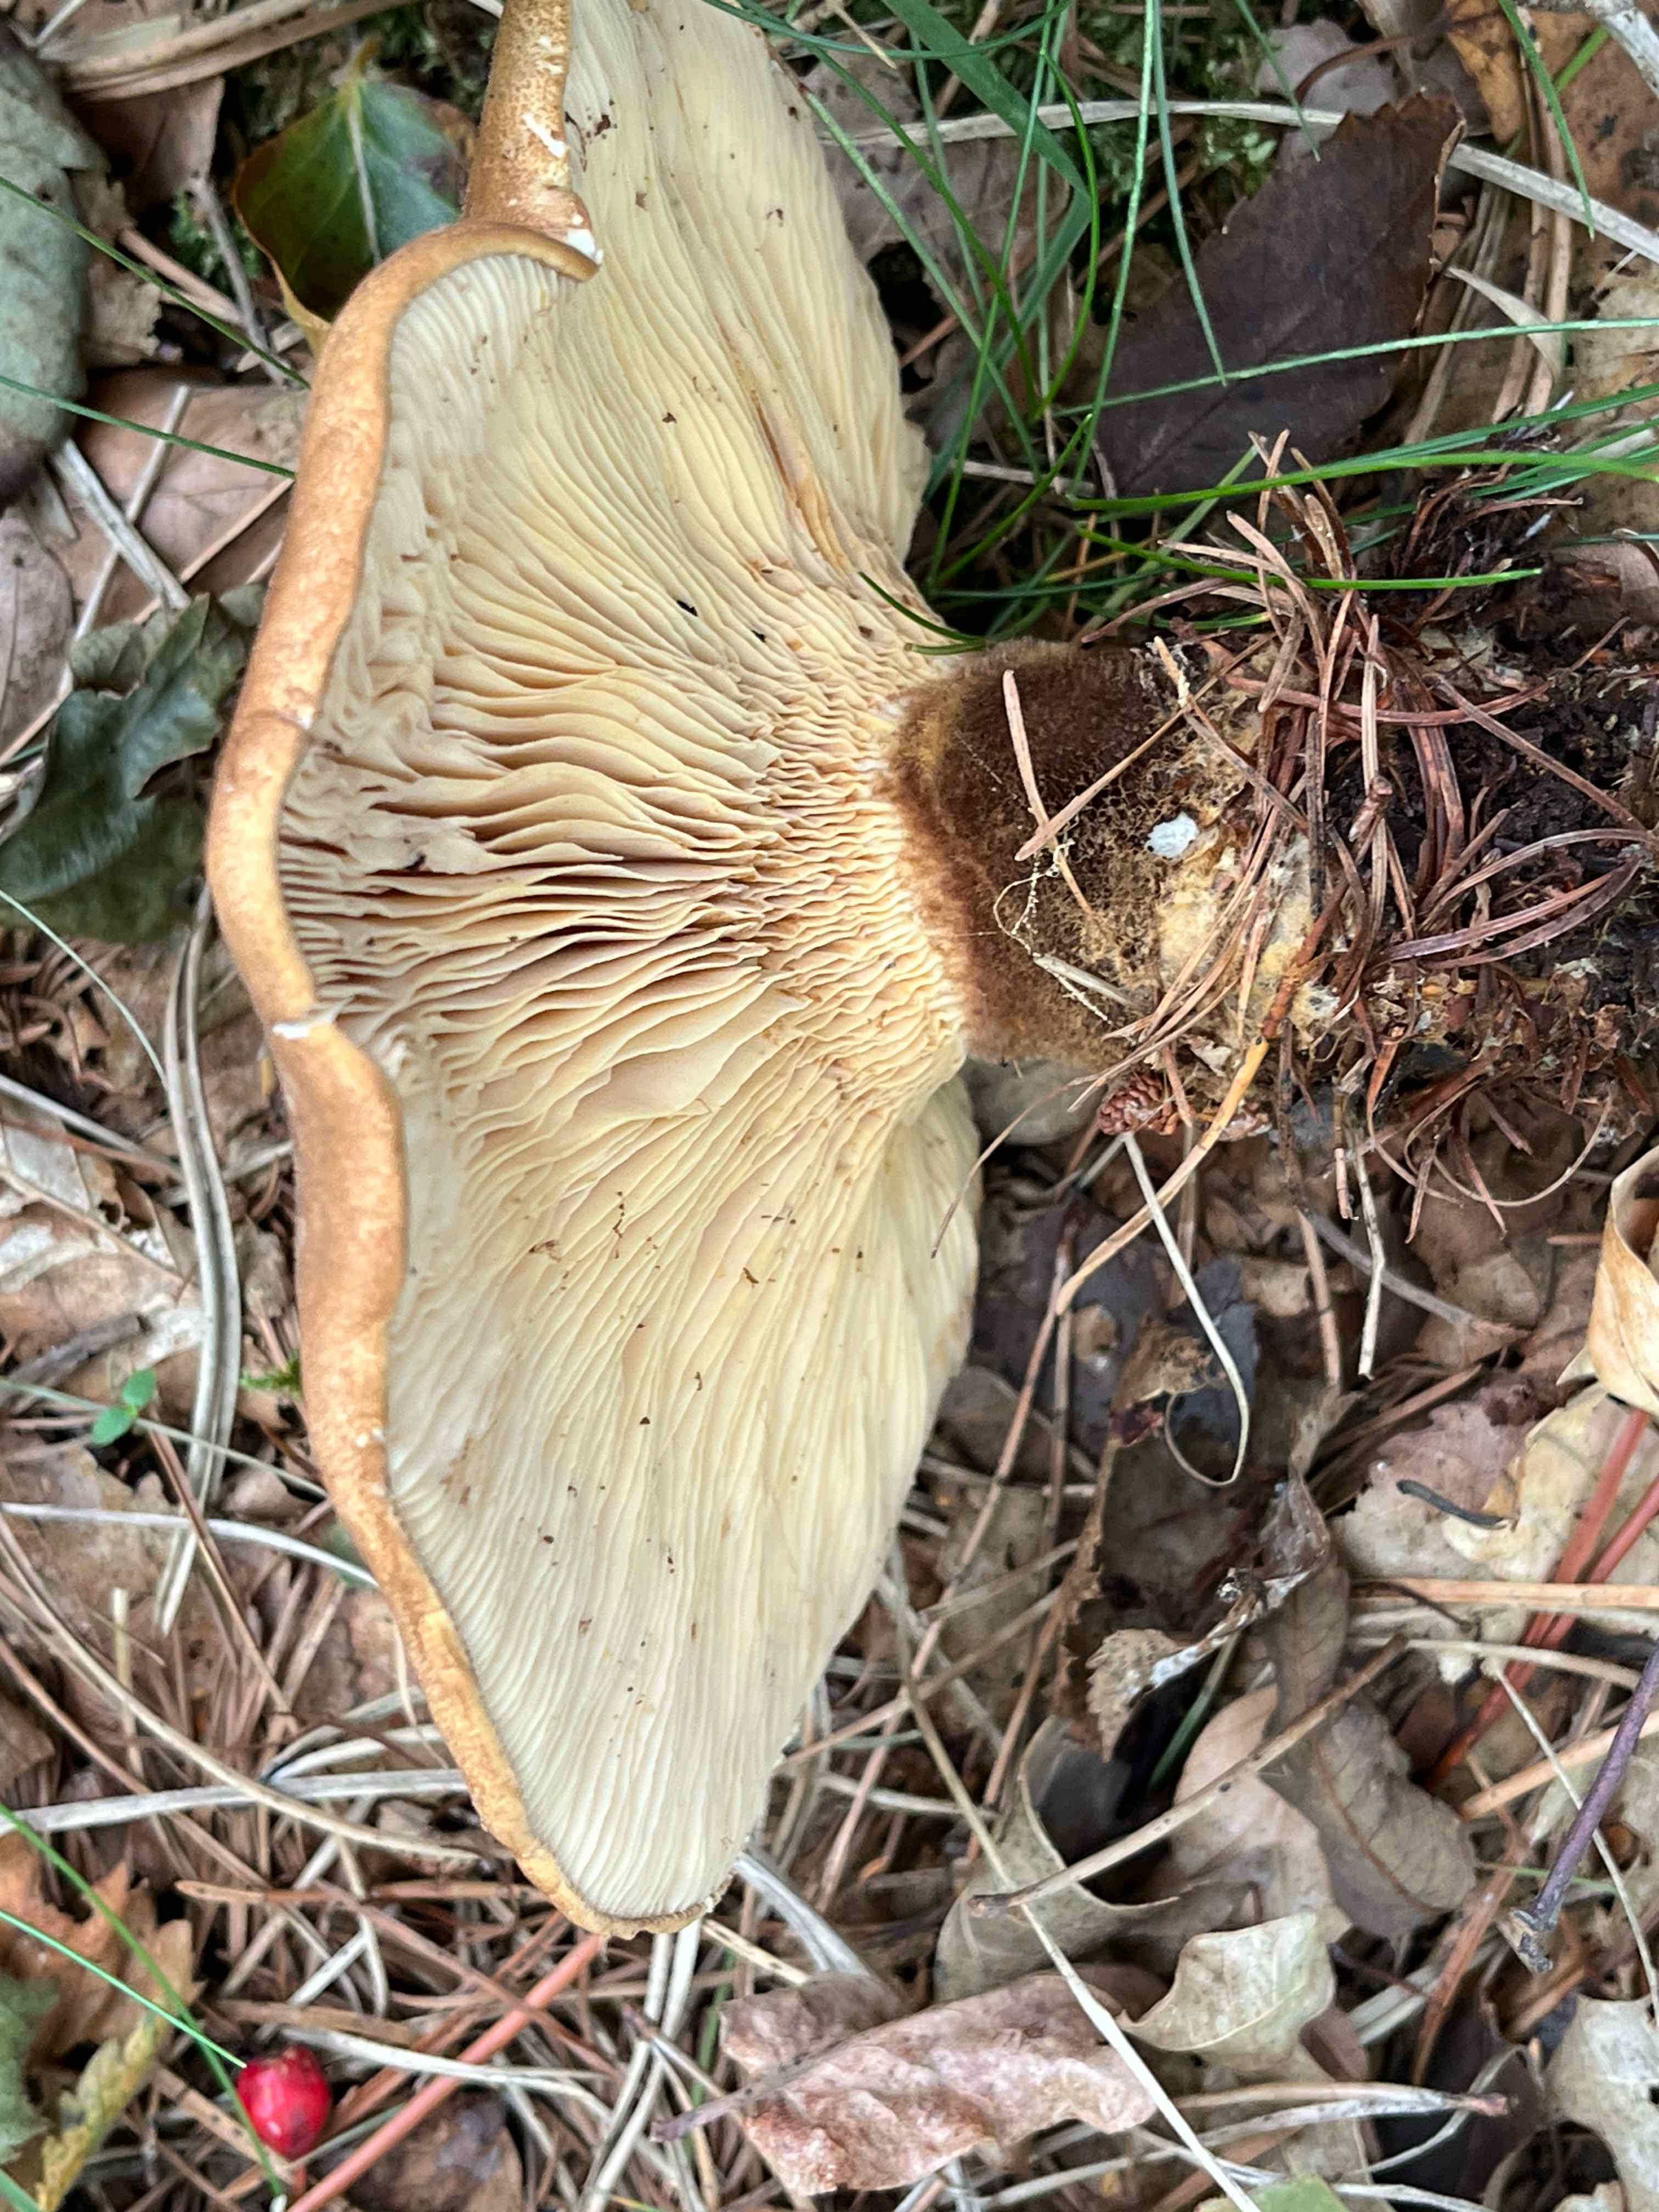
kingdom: Fungi
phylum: Basidiomycota
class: Agaricomycetes
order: Boletales
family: Tapinellaceae
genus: Tapinella
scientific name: Tapinella atrotomentosa
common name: sortfiltet viftesvamp
